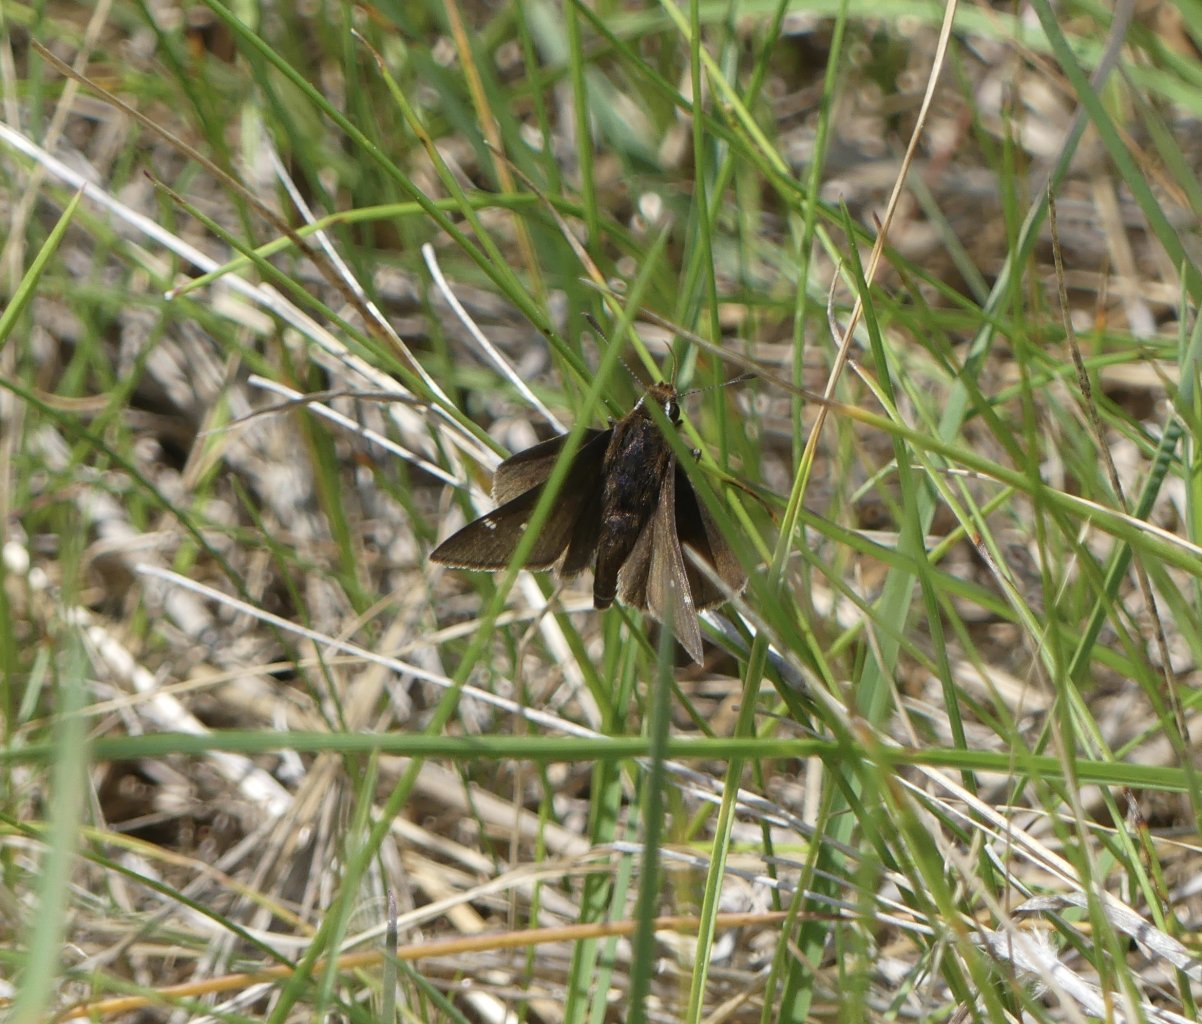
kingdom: Animalia
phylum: Arthropoda
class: Insecta
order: Lepidoptera
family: Hesperiidae
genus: Atrytonopsis
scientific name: Atrytonopsis hianna
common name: Dusted Skipper
